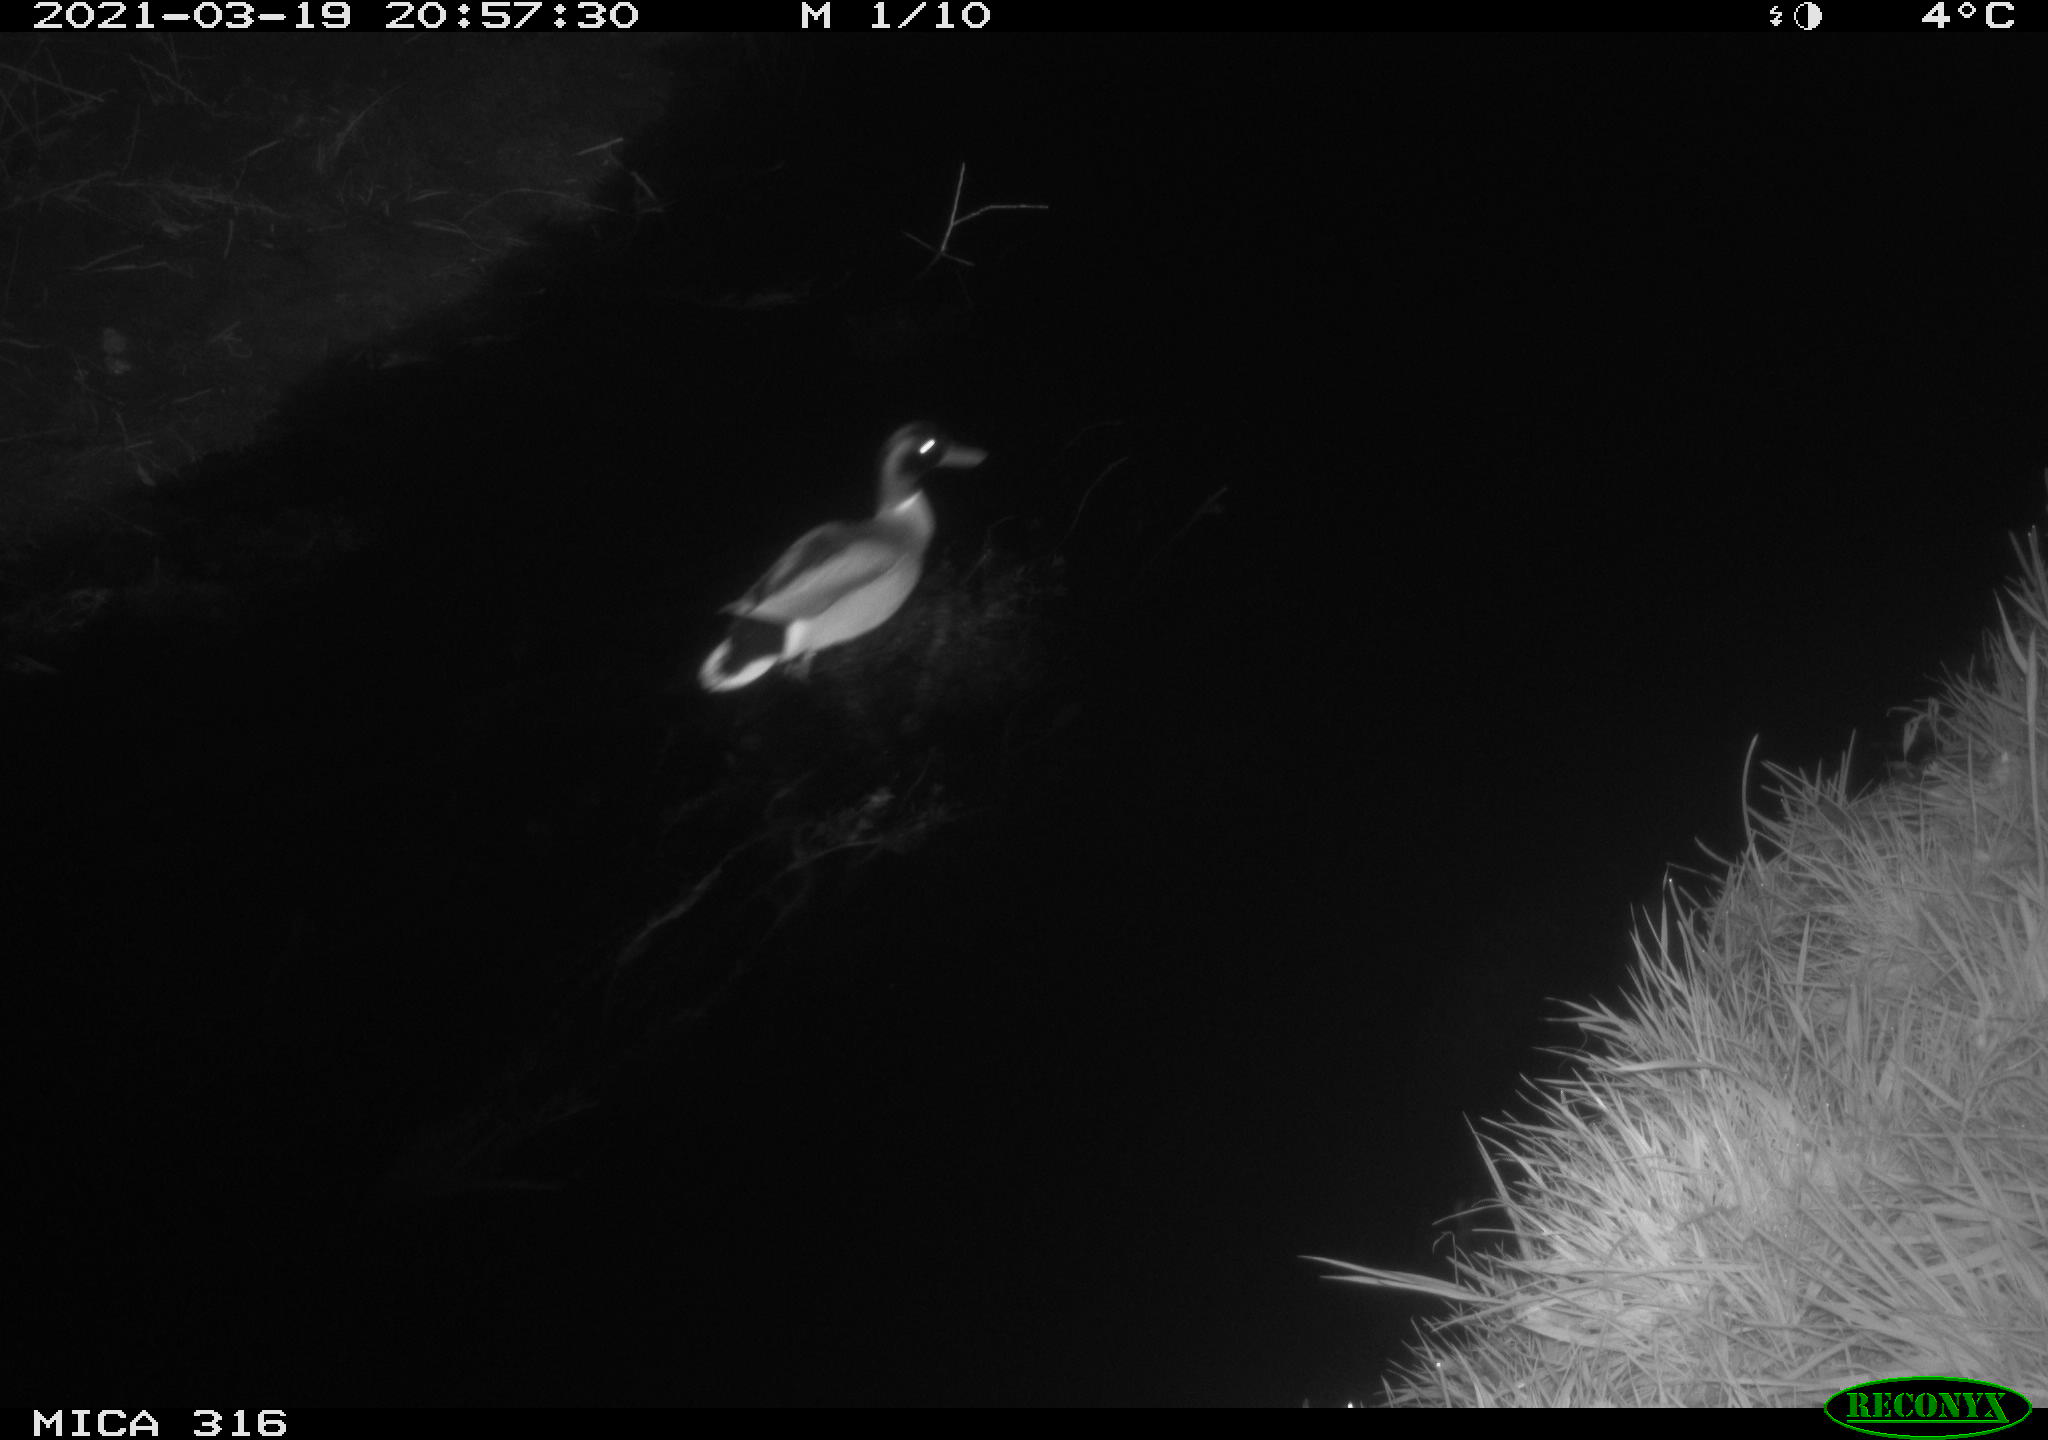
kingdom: Animalia
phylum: Chordata
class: Aves
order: Anseriformes
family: Anatidae
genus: Anas
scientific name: Anas platyrhynchos
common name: Mallard
